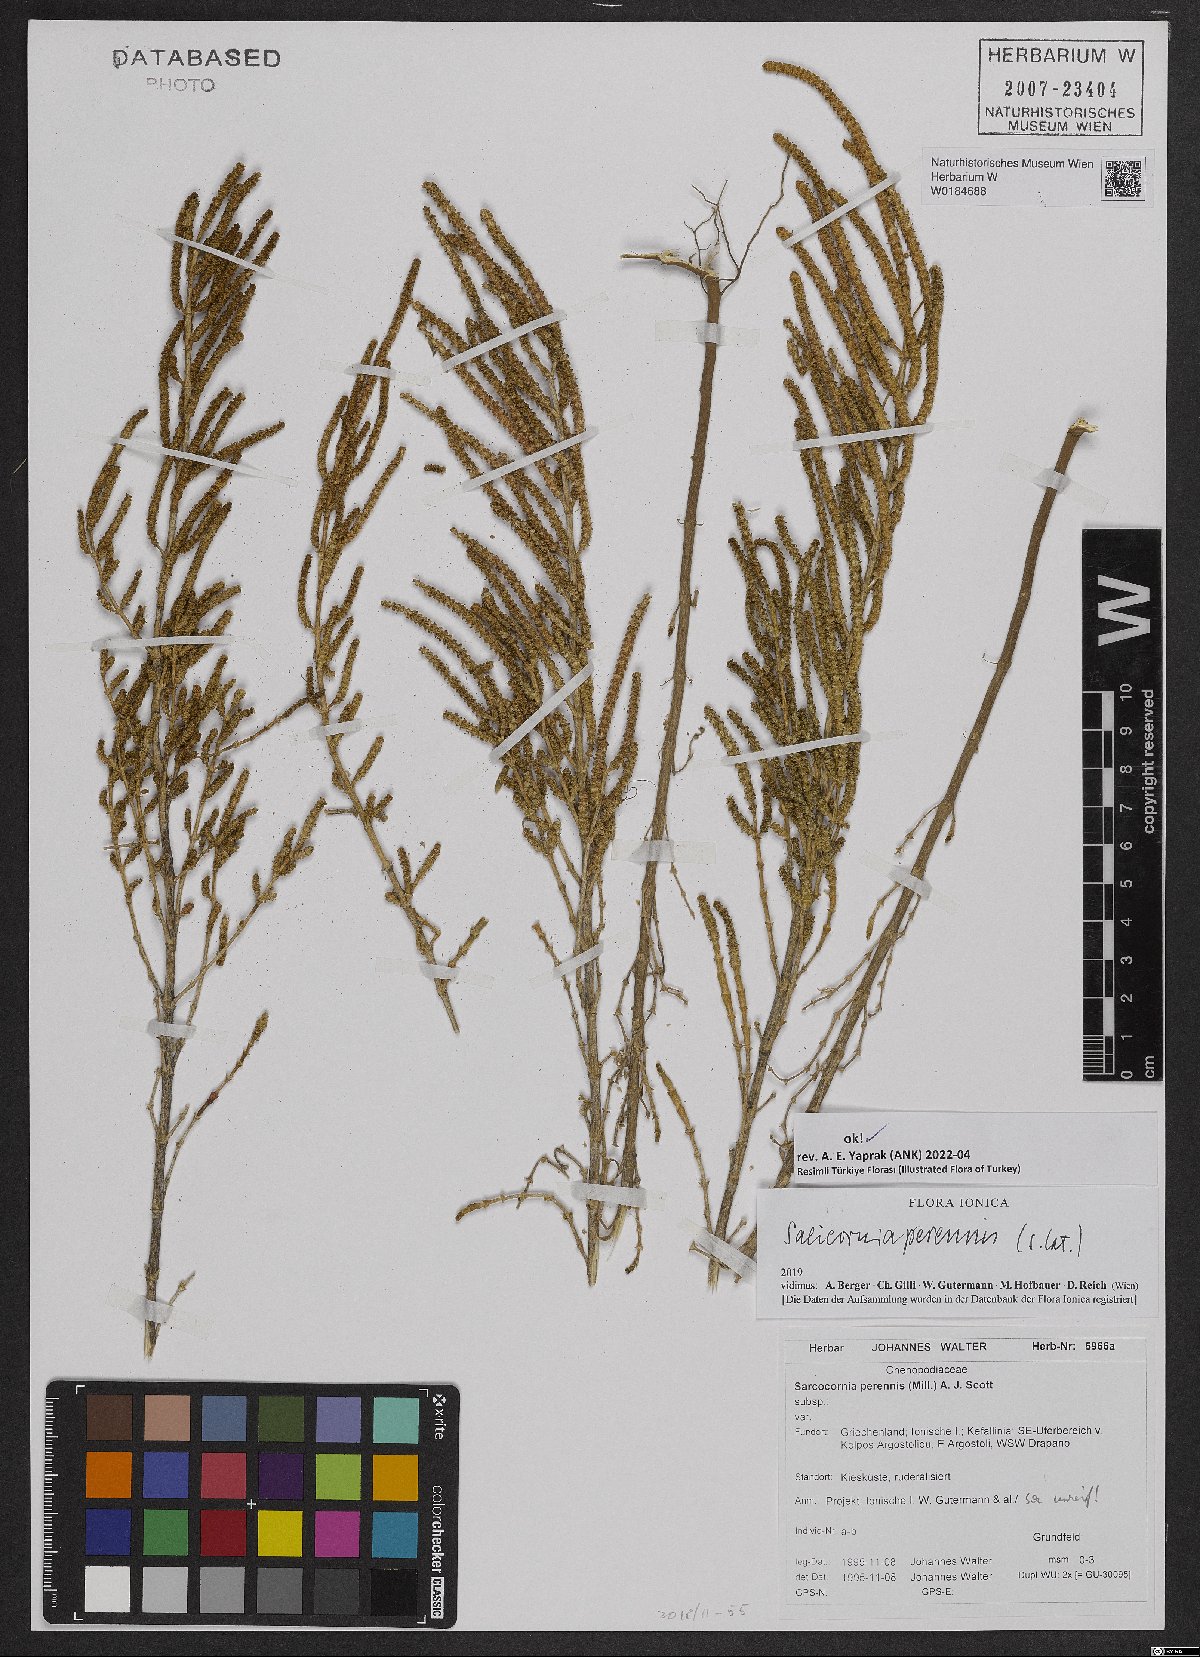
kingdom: Plantae
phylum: Tracheophyta
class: Magnoliopsida
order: Caryophyllales
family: Amaranthaceae
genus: Salicornia
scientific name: Salicornia perennis
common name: Chicken claws
